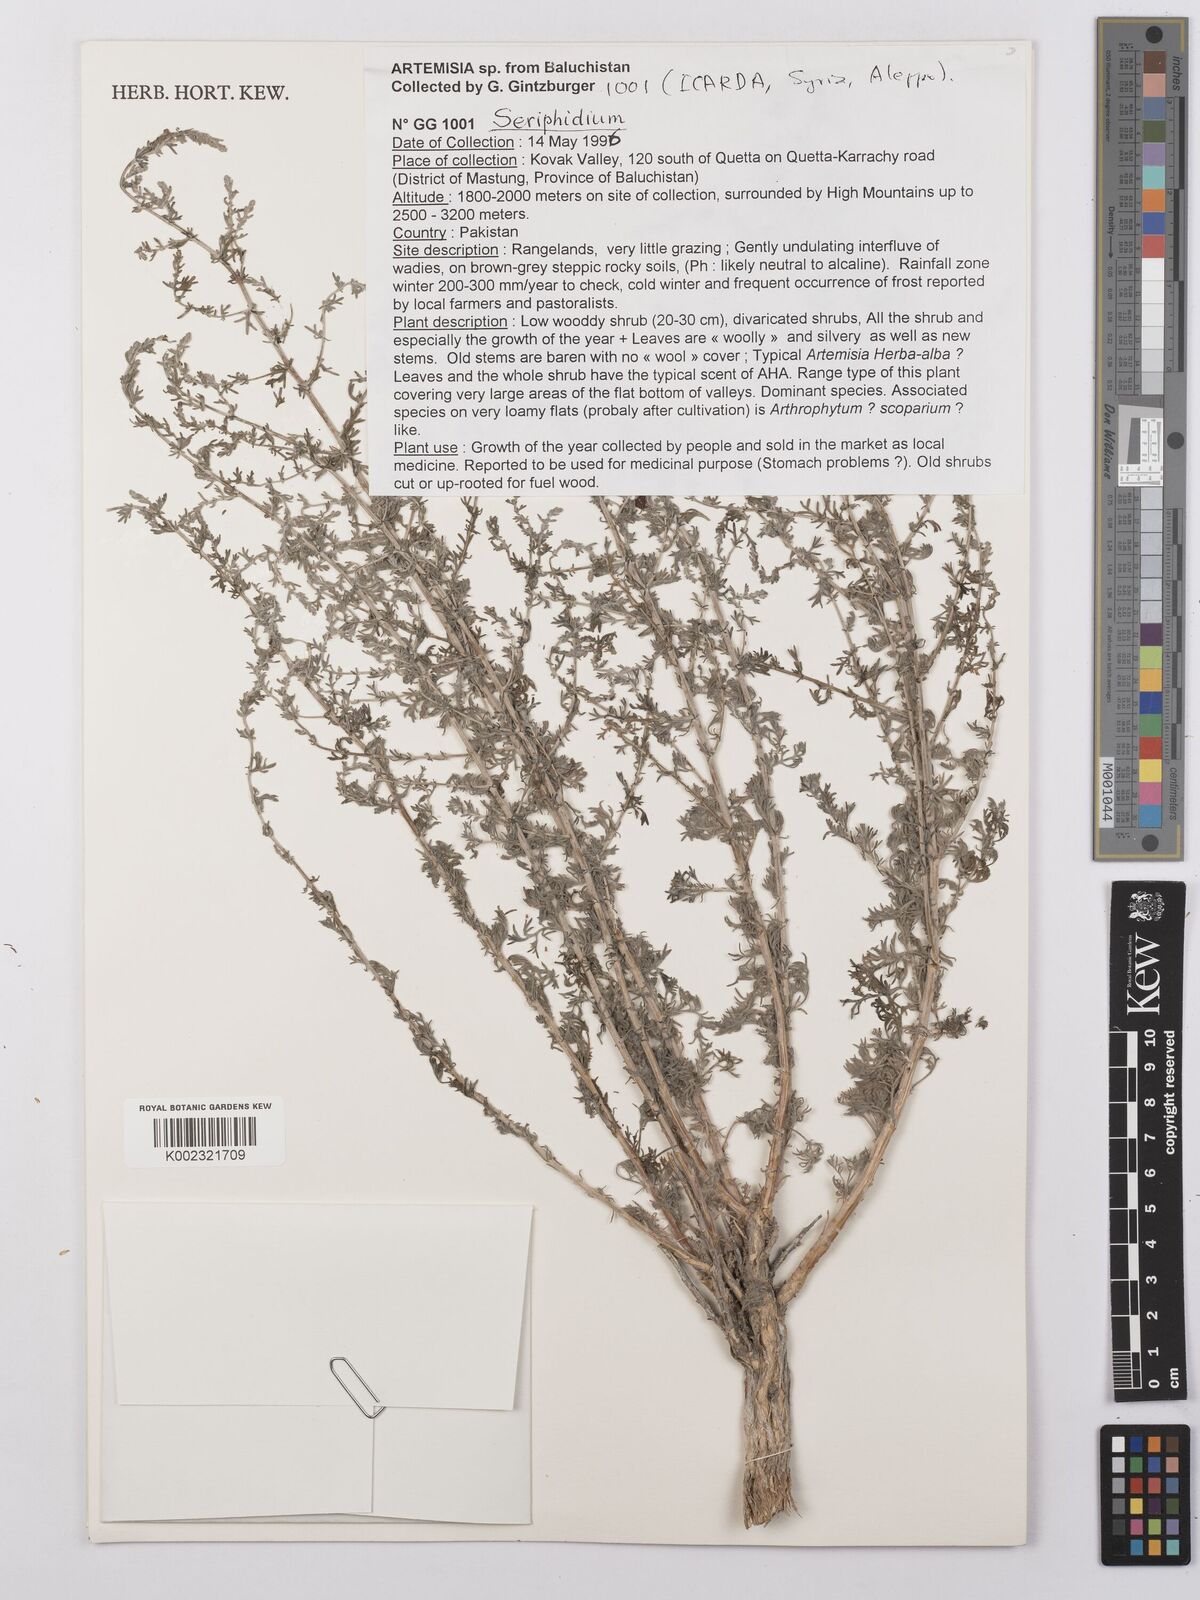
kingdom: Plantae
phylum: Tracheophyta
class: Magnoliopsida
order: Asterales
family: Asteraceae
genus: Seriphidium
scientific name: Seriphidium
